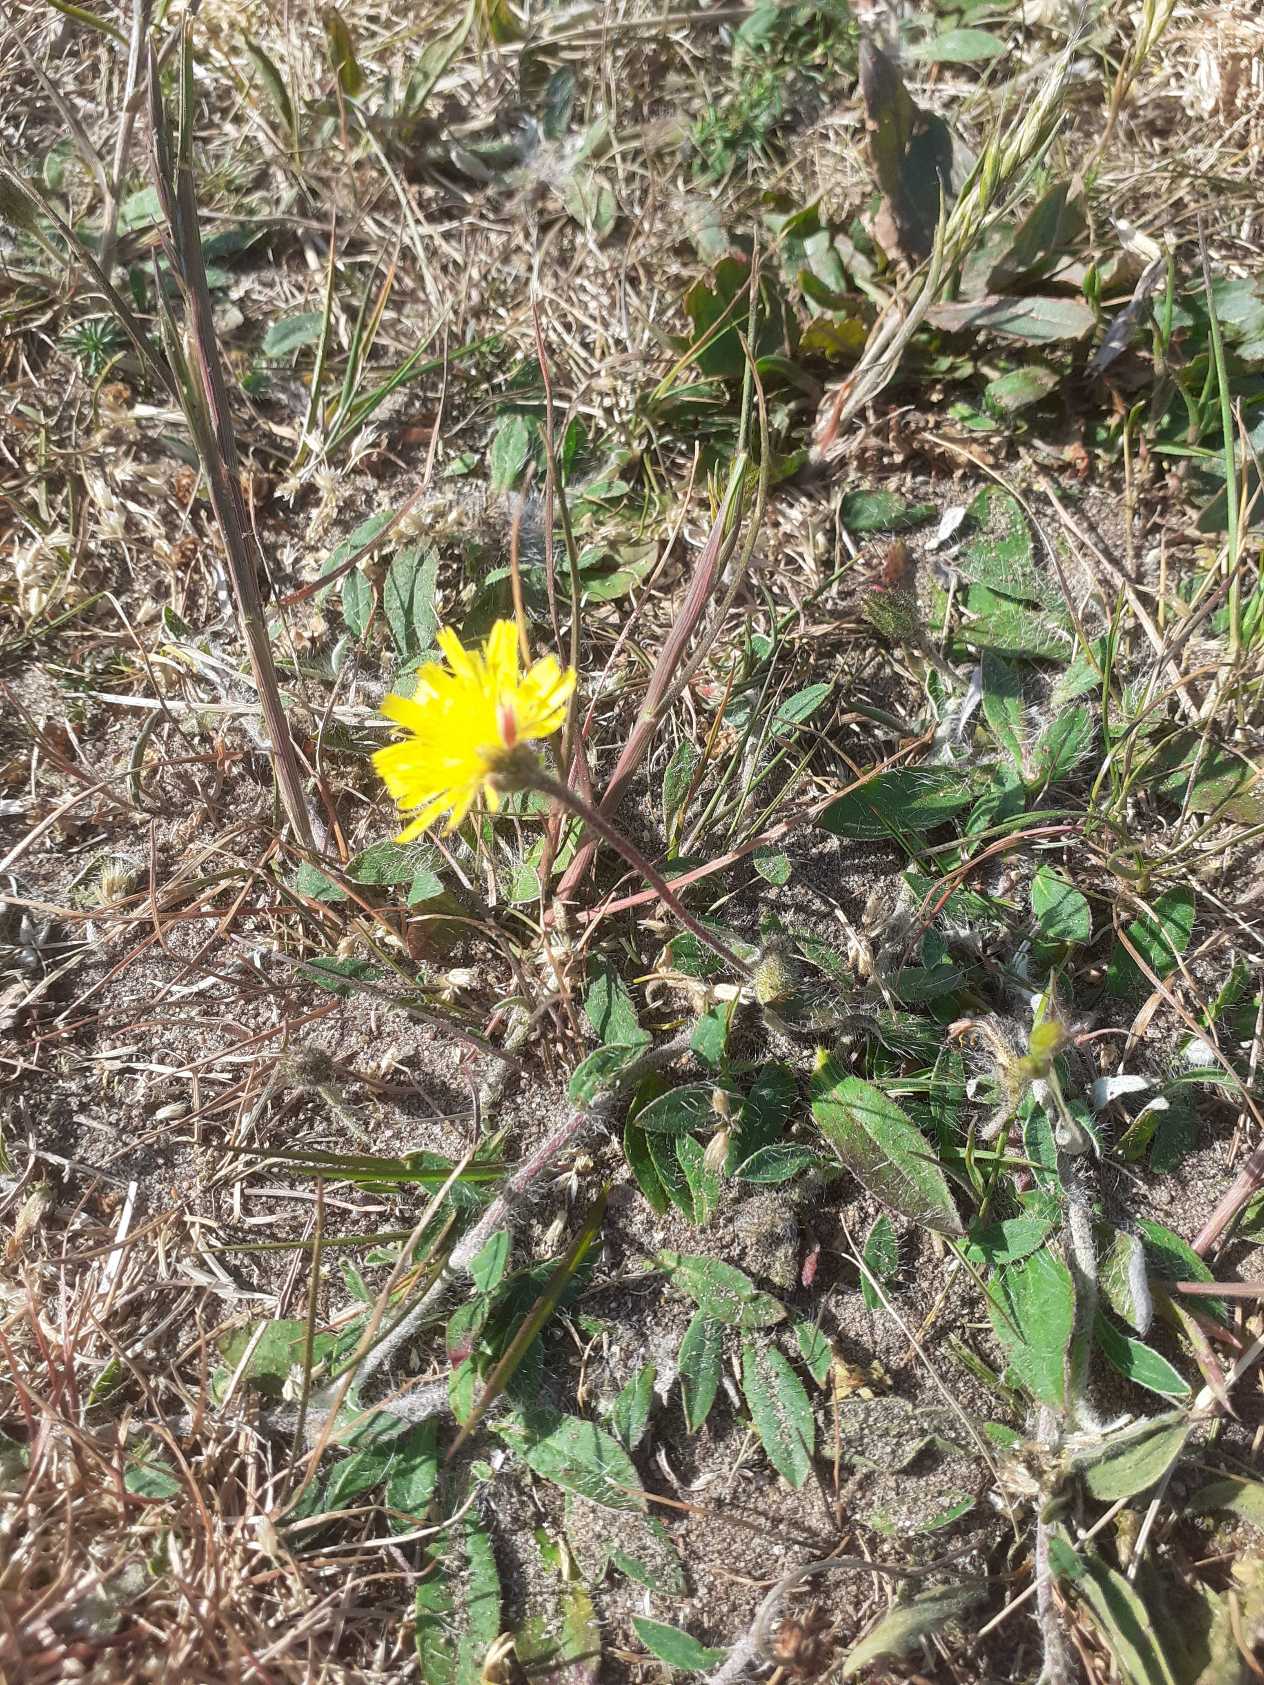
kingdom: Plantae
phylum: Tracheophyta
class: Magnoliopsida
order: Asterales
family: Asteraceae
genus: Pilosella
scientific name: Pilosella officinarum
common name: Håret høgeurt
